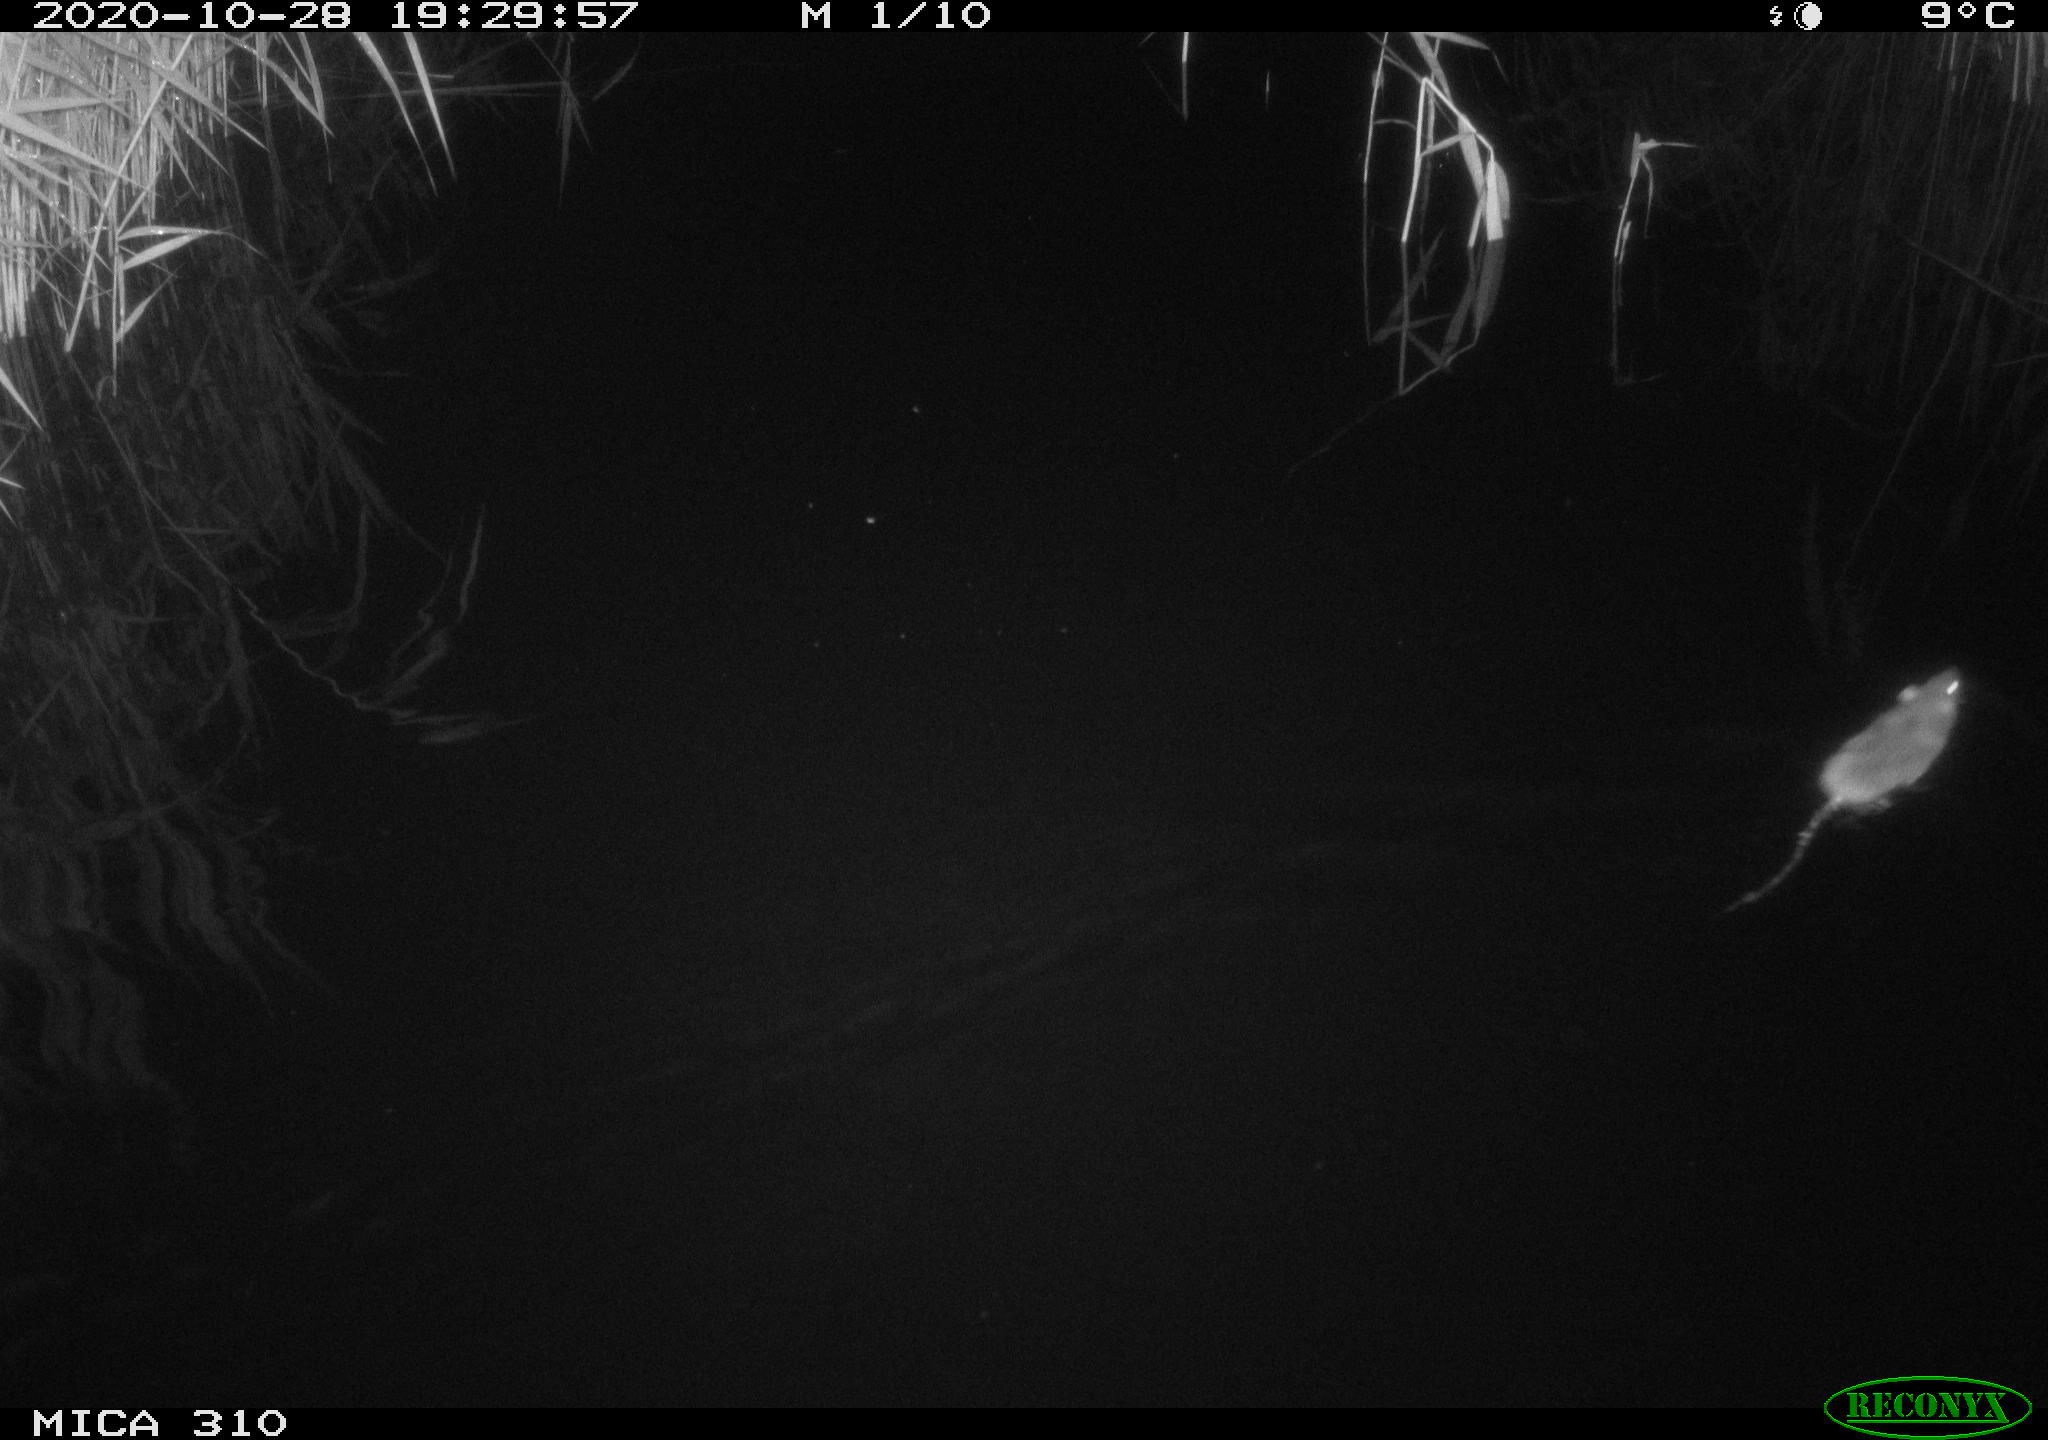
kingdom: Animalia
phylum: Chordata
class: Mammalia
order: Rodentia
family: Muridae
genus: Rattus
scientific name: Rattus norvegicus
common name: Brown rat
